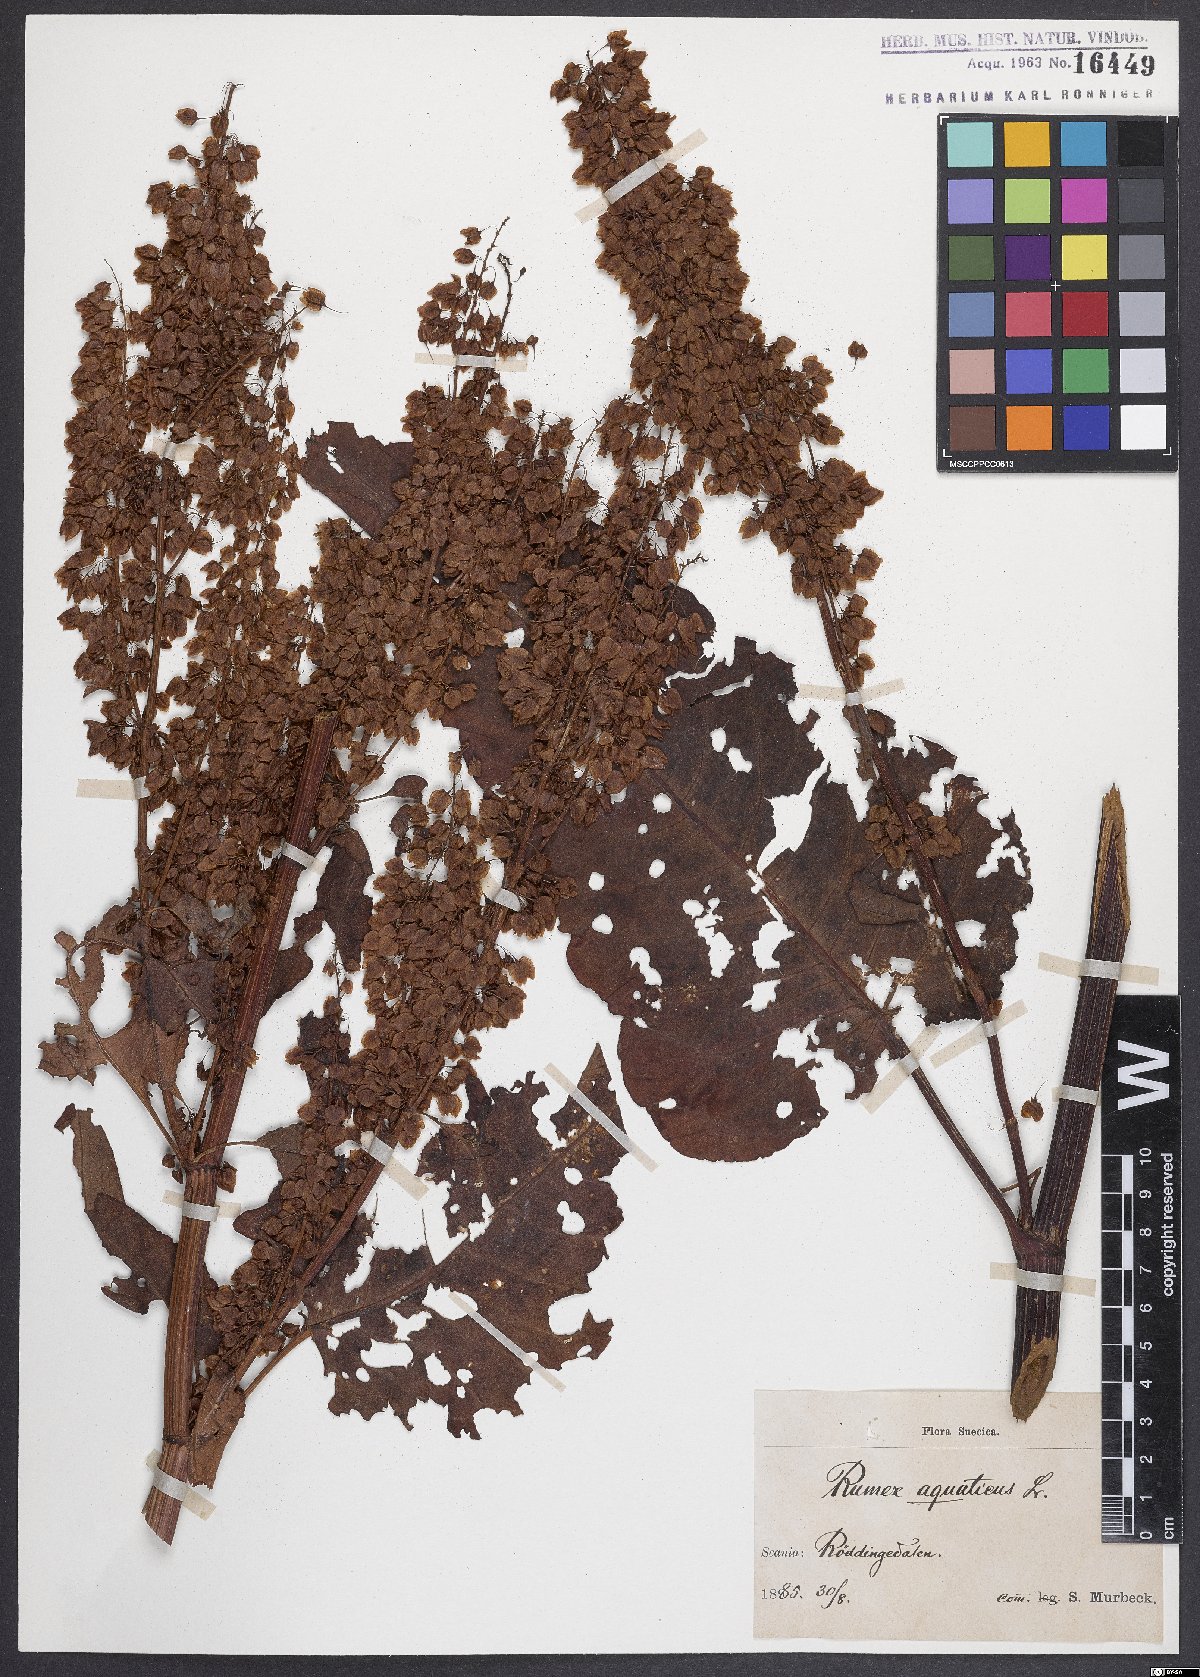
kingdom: Plantae
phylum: Tracheophyta
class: Magnoliopsida
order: Caryophyllales
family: Polygonaceae
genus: Rumex
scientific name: Rumex aquaticus
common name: Scottish dock
